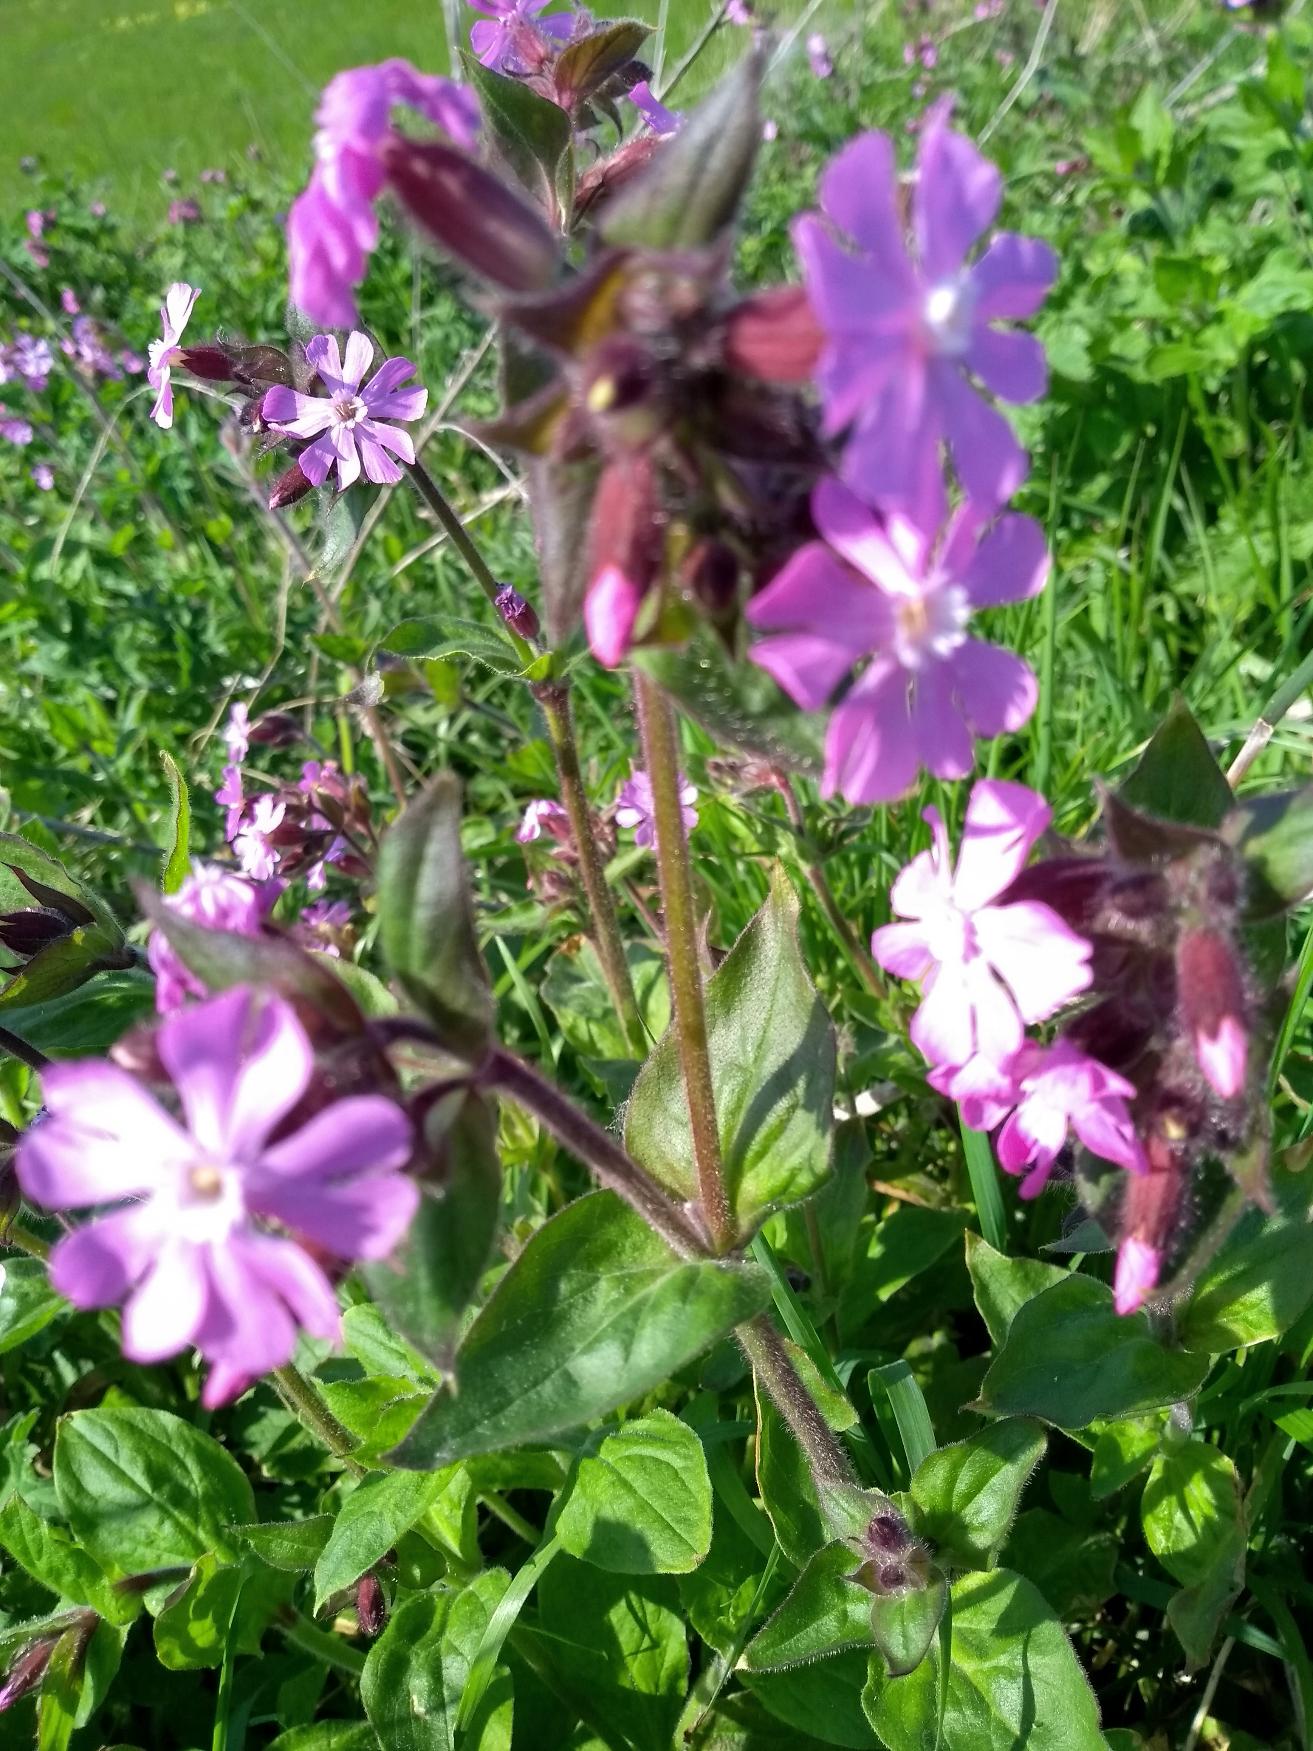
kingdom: Plantae
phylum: Tracheophyta
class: Magnoliopsida
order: Caryophyllales
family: Caryophyllaceae
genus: Silene
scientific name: Silene dioica
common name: Dagpragtstjerne
